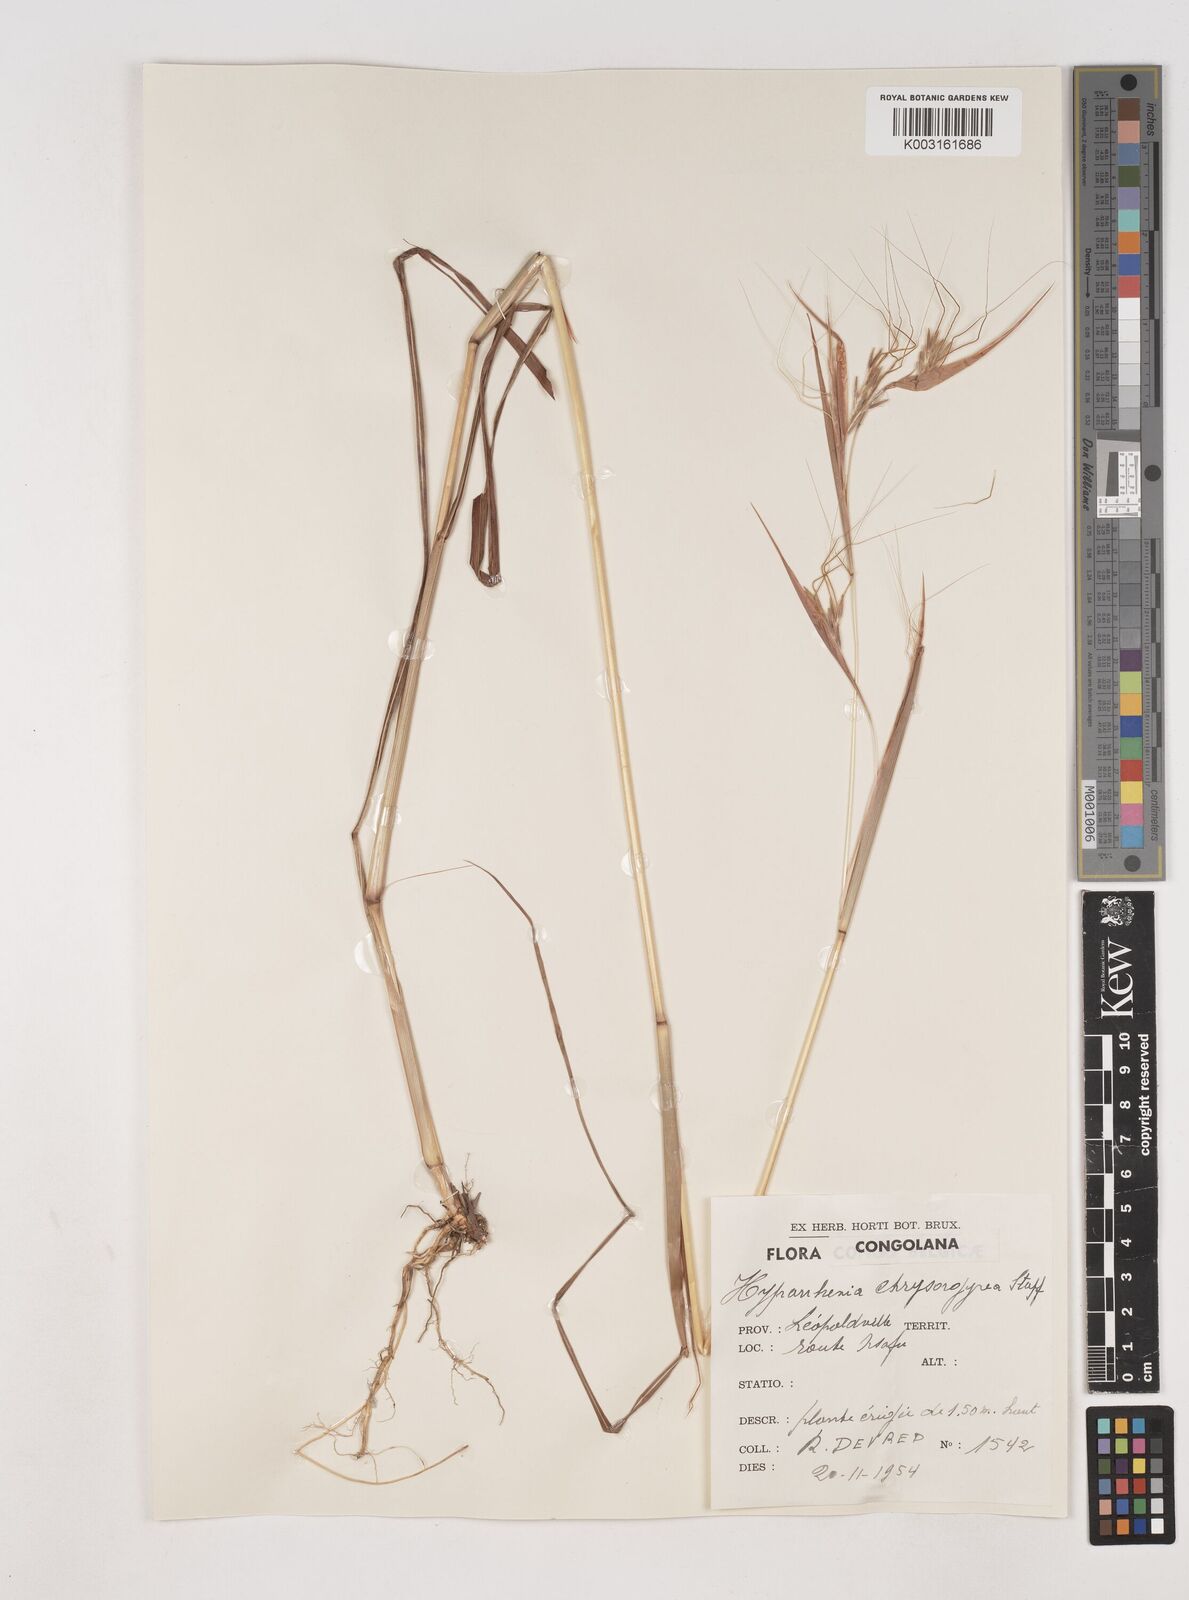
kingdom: Plantae
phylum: Tracheophyta
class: Liliopsida
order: Poales
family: Poaceae
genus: Hyparrhenia
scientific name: Hyparrhenia poecilotricha
